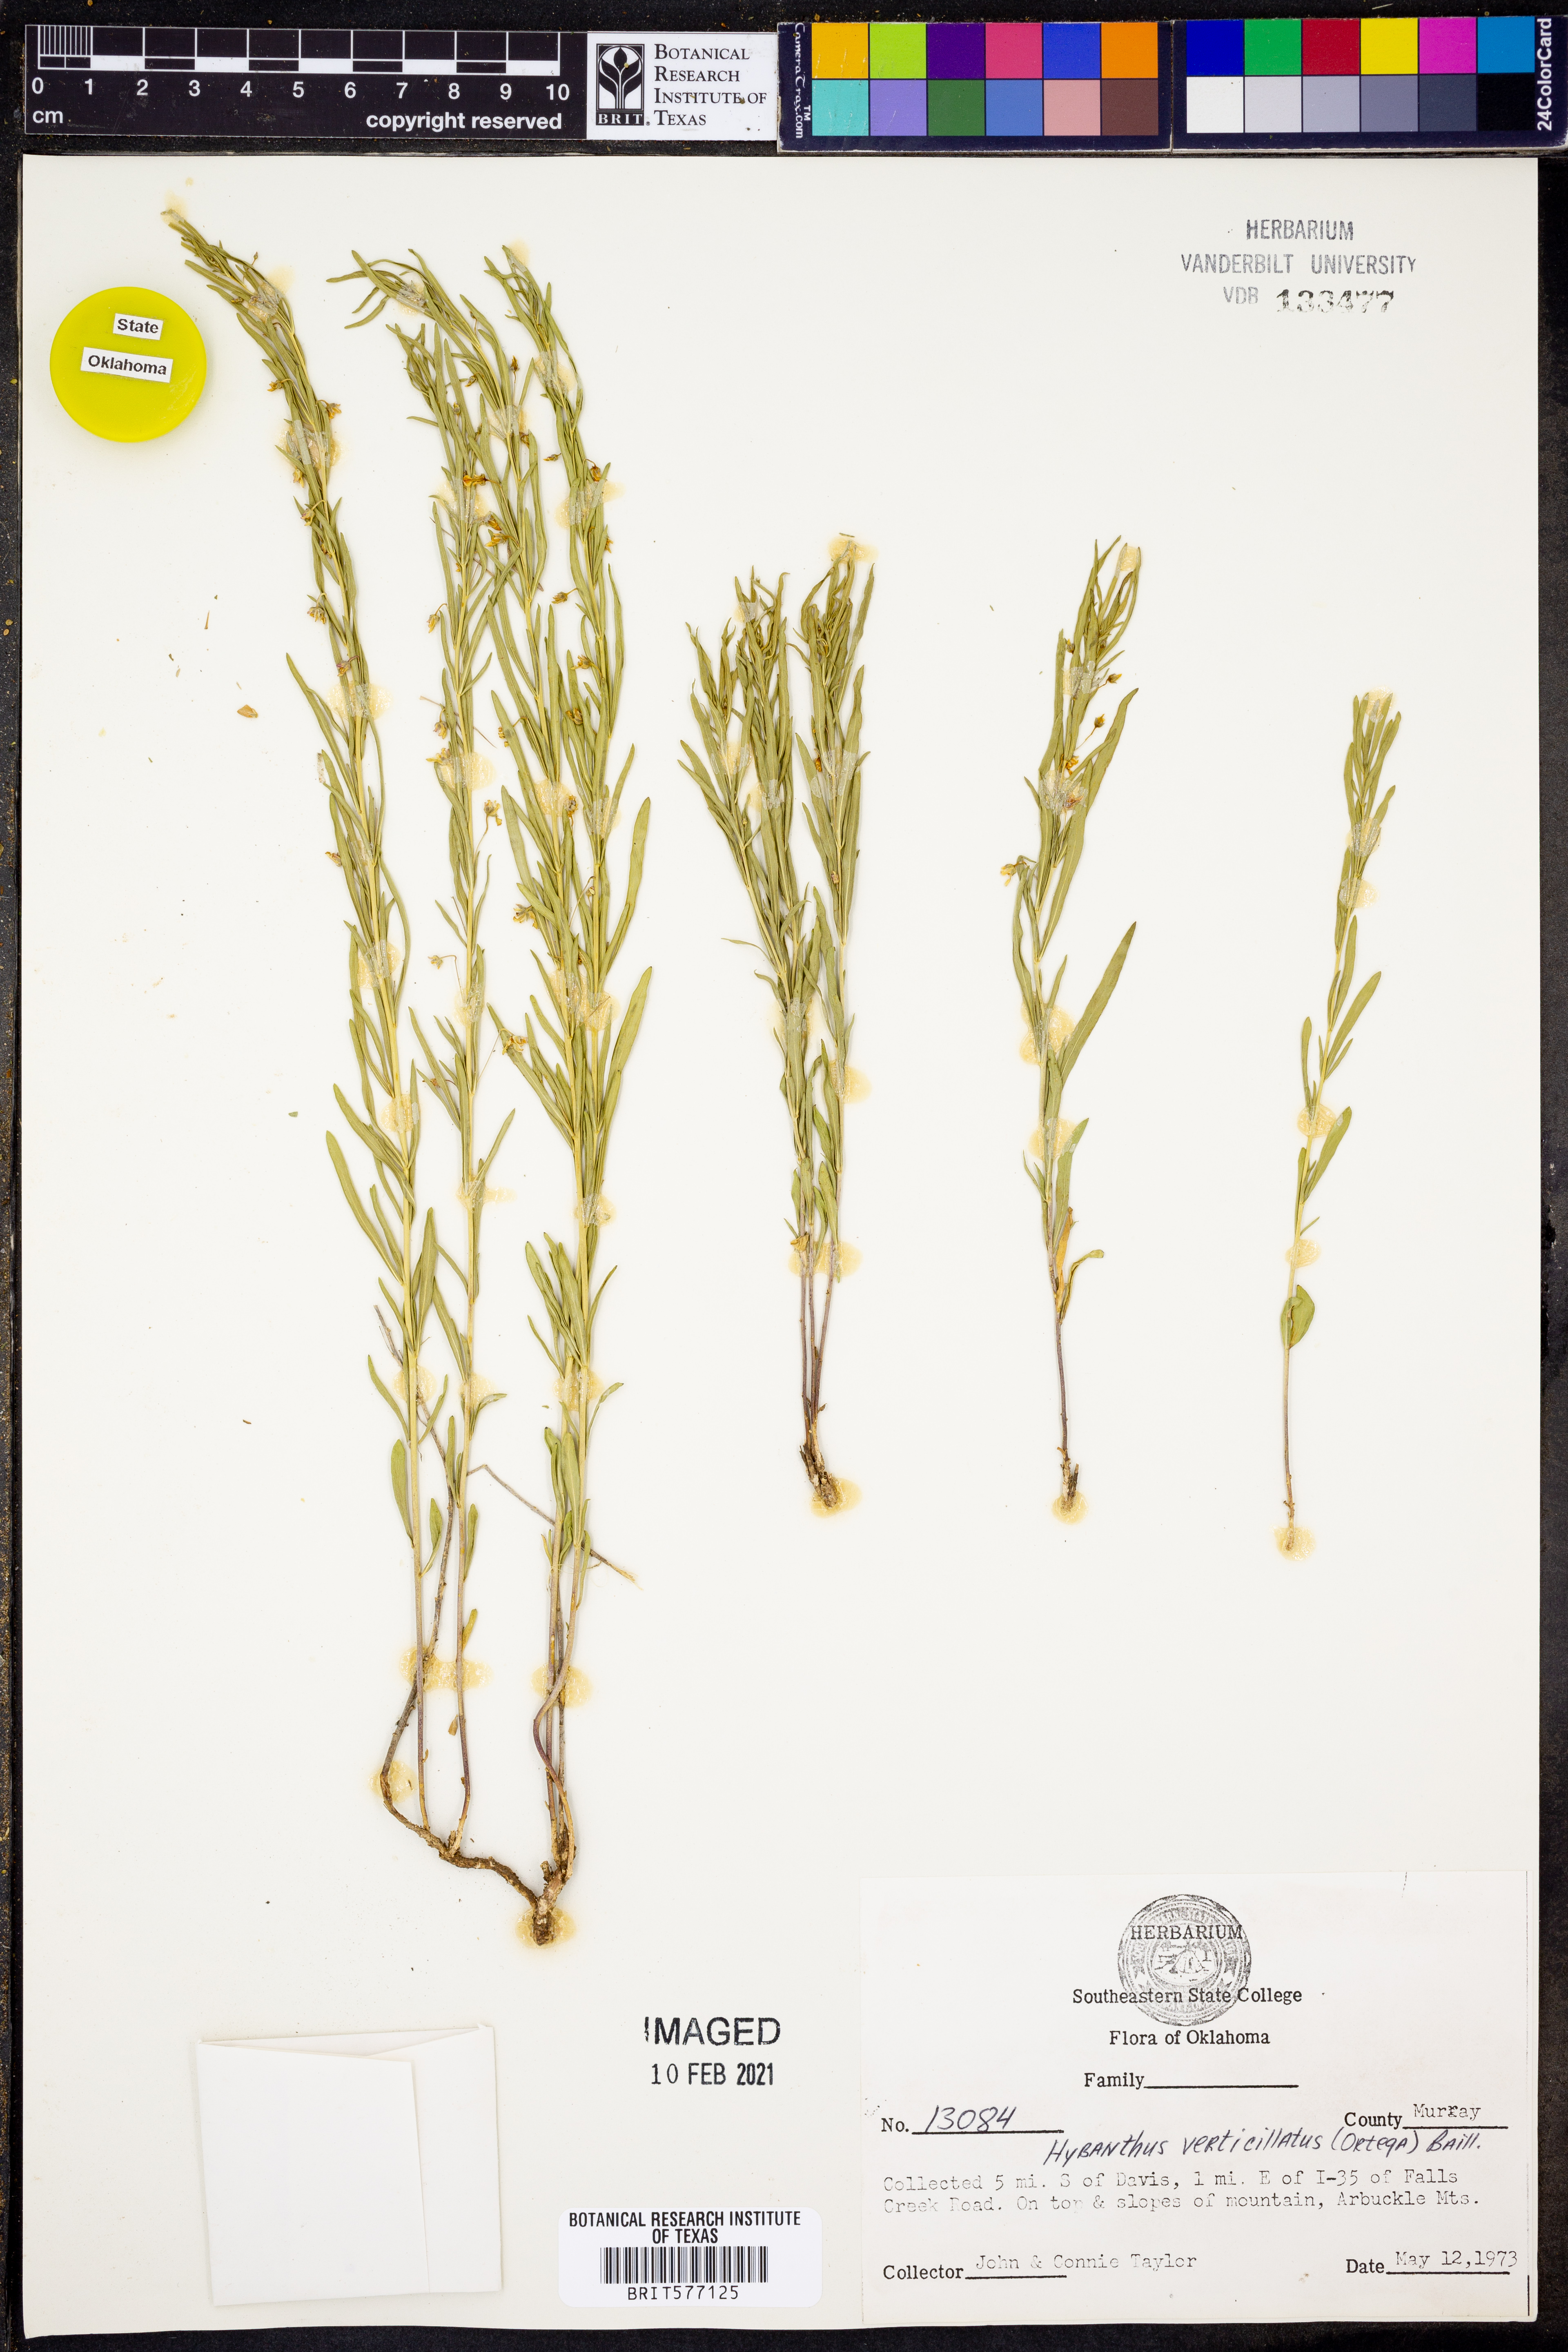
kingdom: Plantae
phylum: Tracheophyta
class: Magnoliopsida
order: Malpighiales
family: Violaceae
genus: Pombalia
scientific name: Pombalia verticillata
